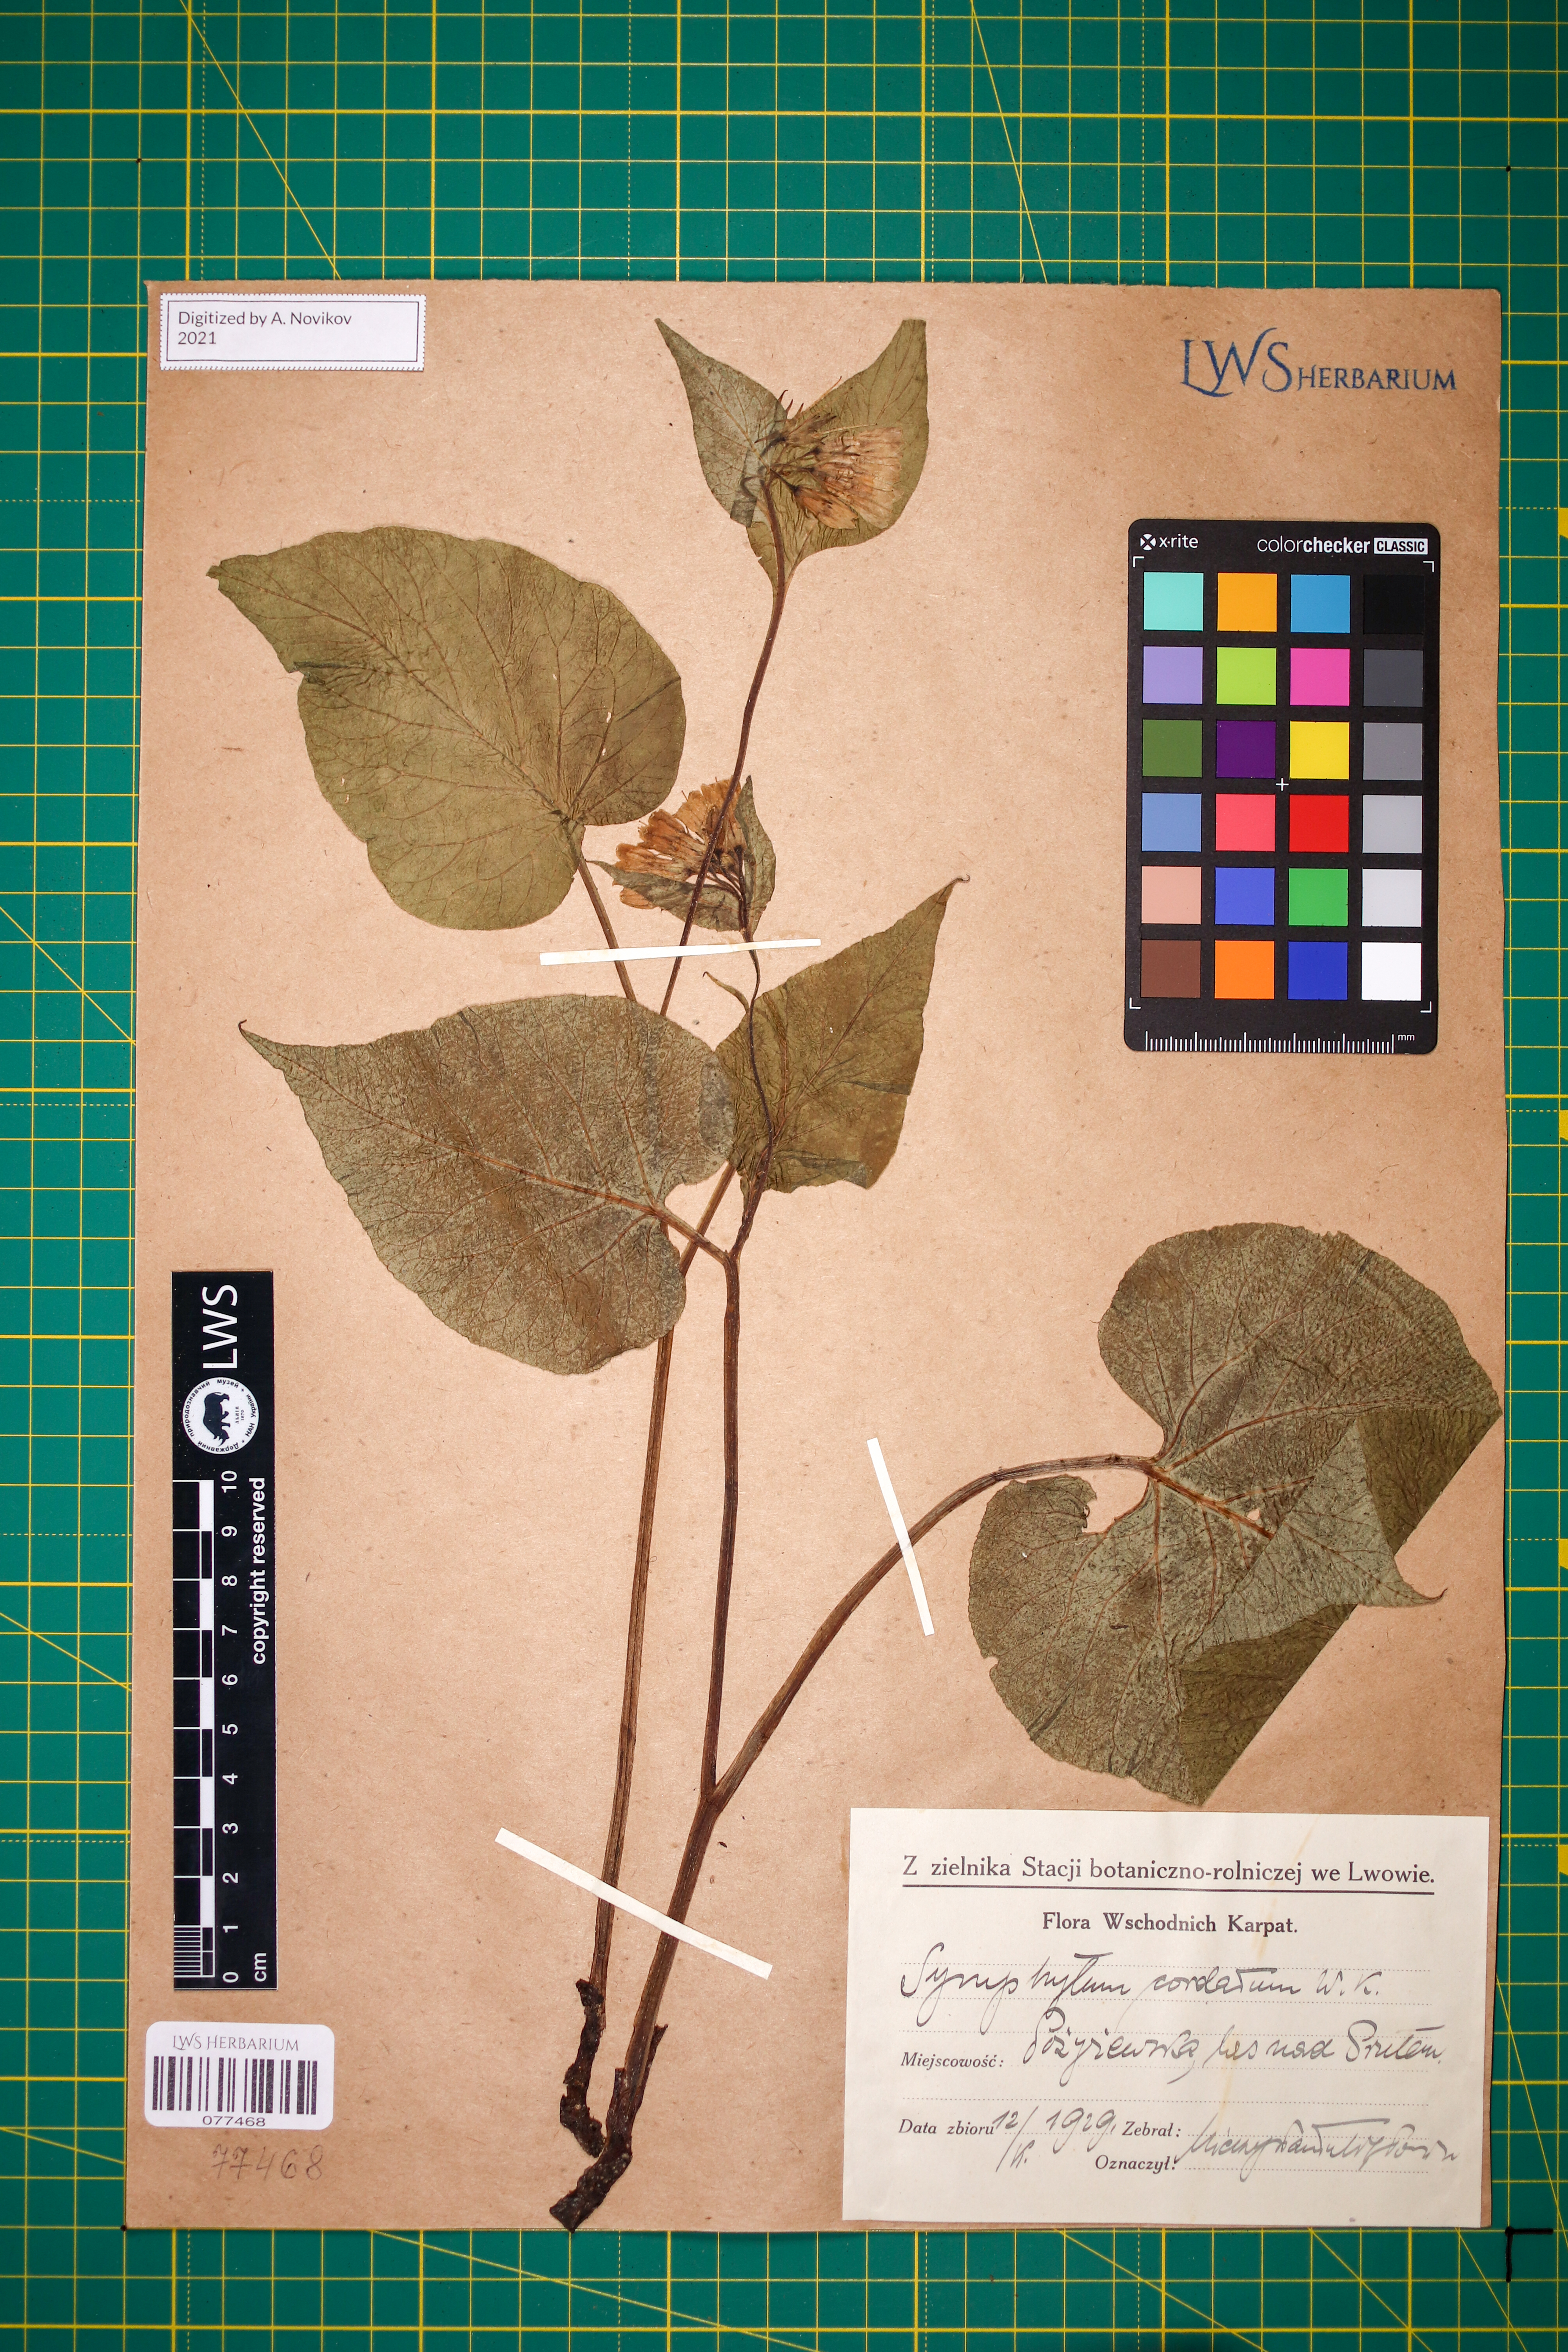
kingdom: Plantae
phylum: Tracheophyta
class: Magnoliopsida
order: Boraginales
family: Boraginaceae
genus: Symphytum
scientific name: Symphytum cordatum
